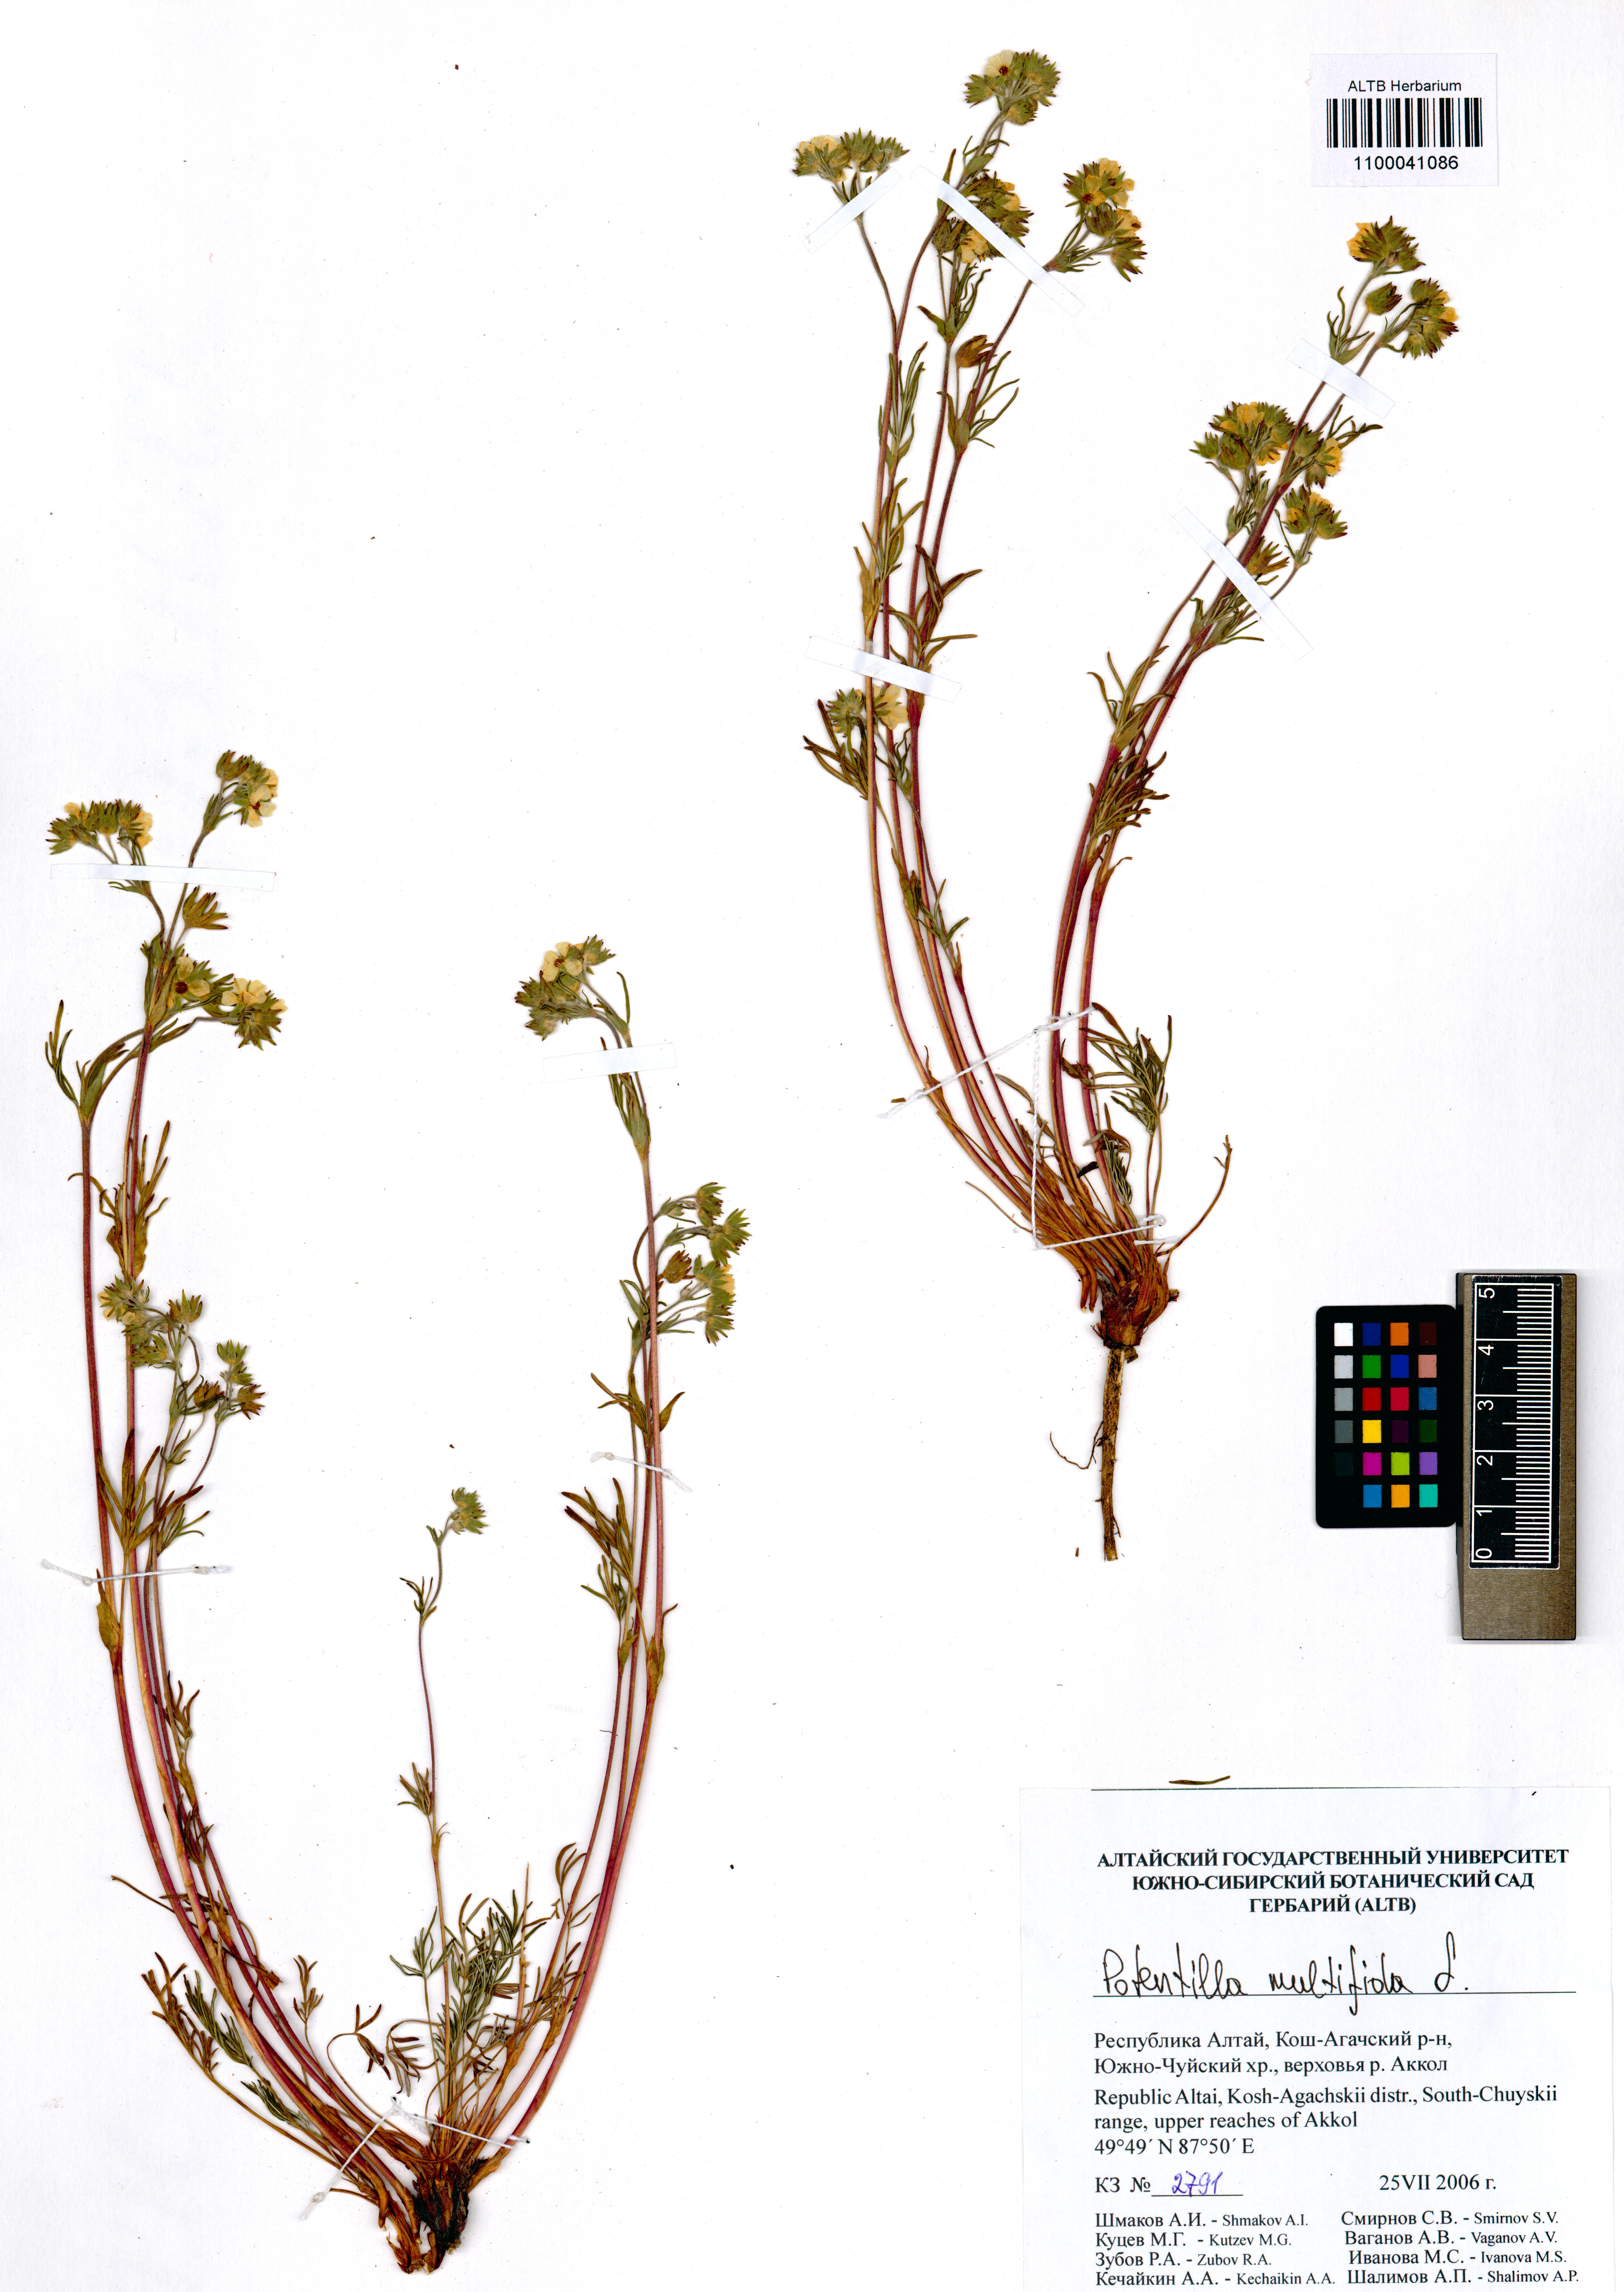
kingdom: Plantae
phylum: Tracheophyta
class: Magnoliopsida
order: Rosales
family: Rosaceae
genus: Potentilla
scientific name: Potentilla multifida
